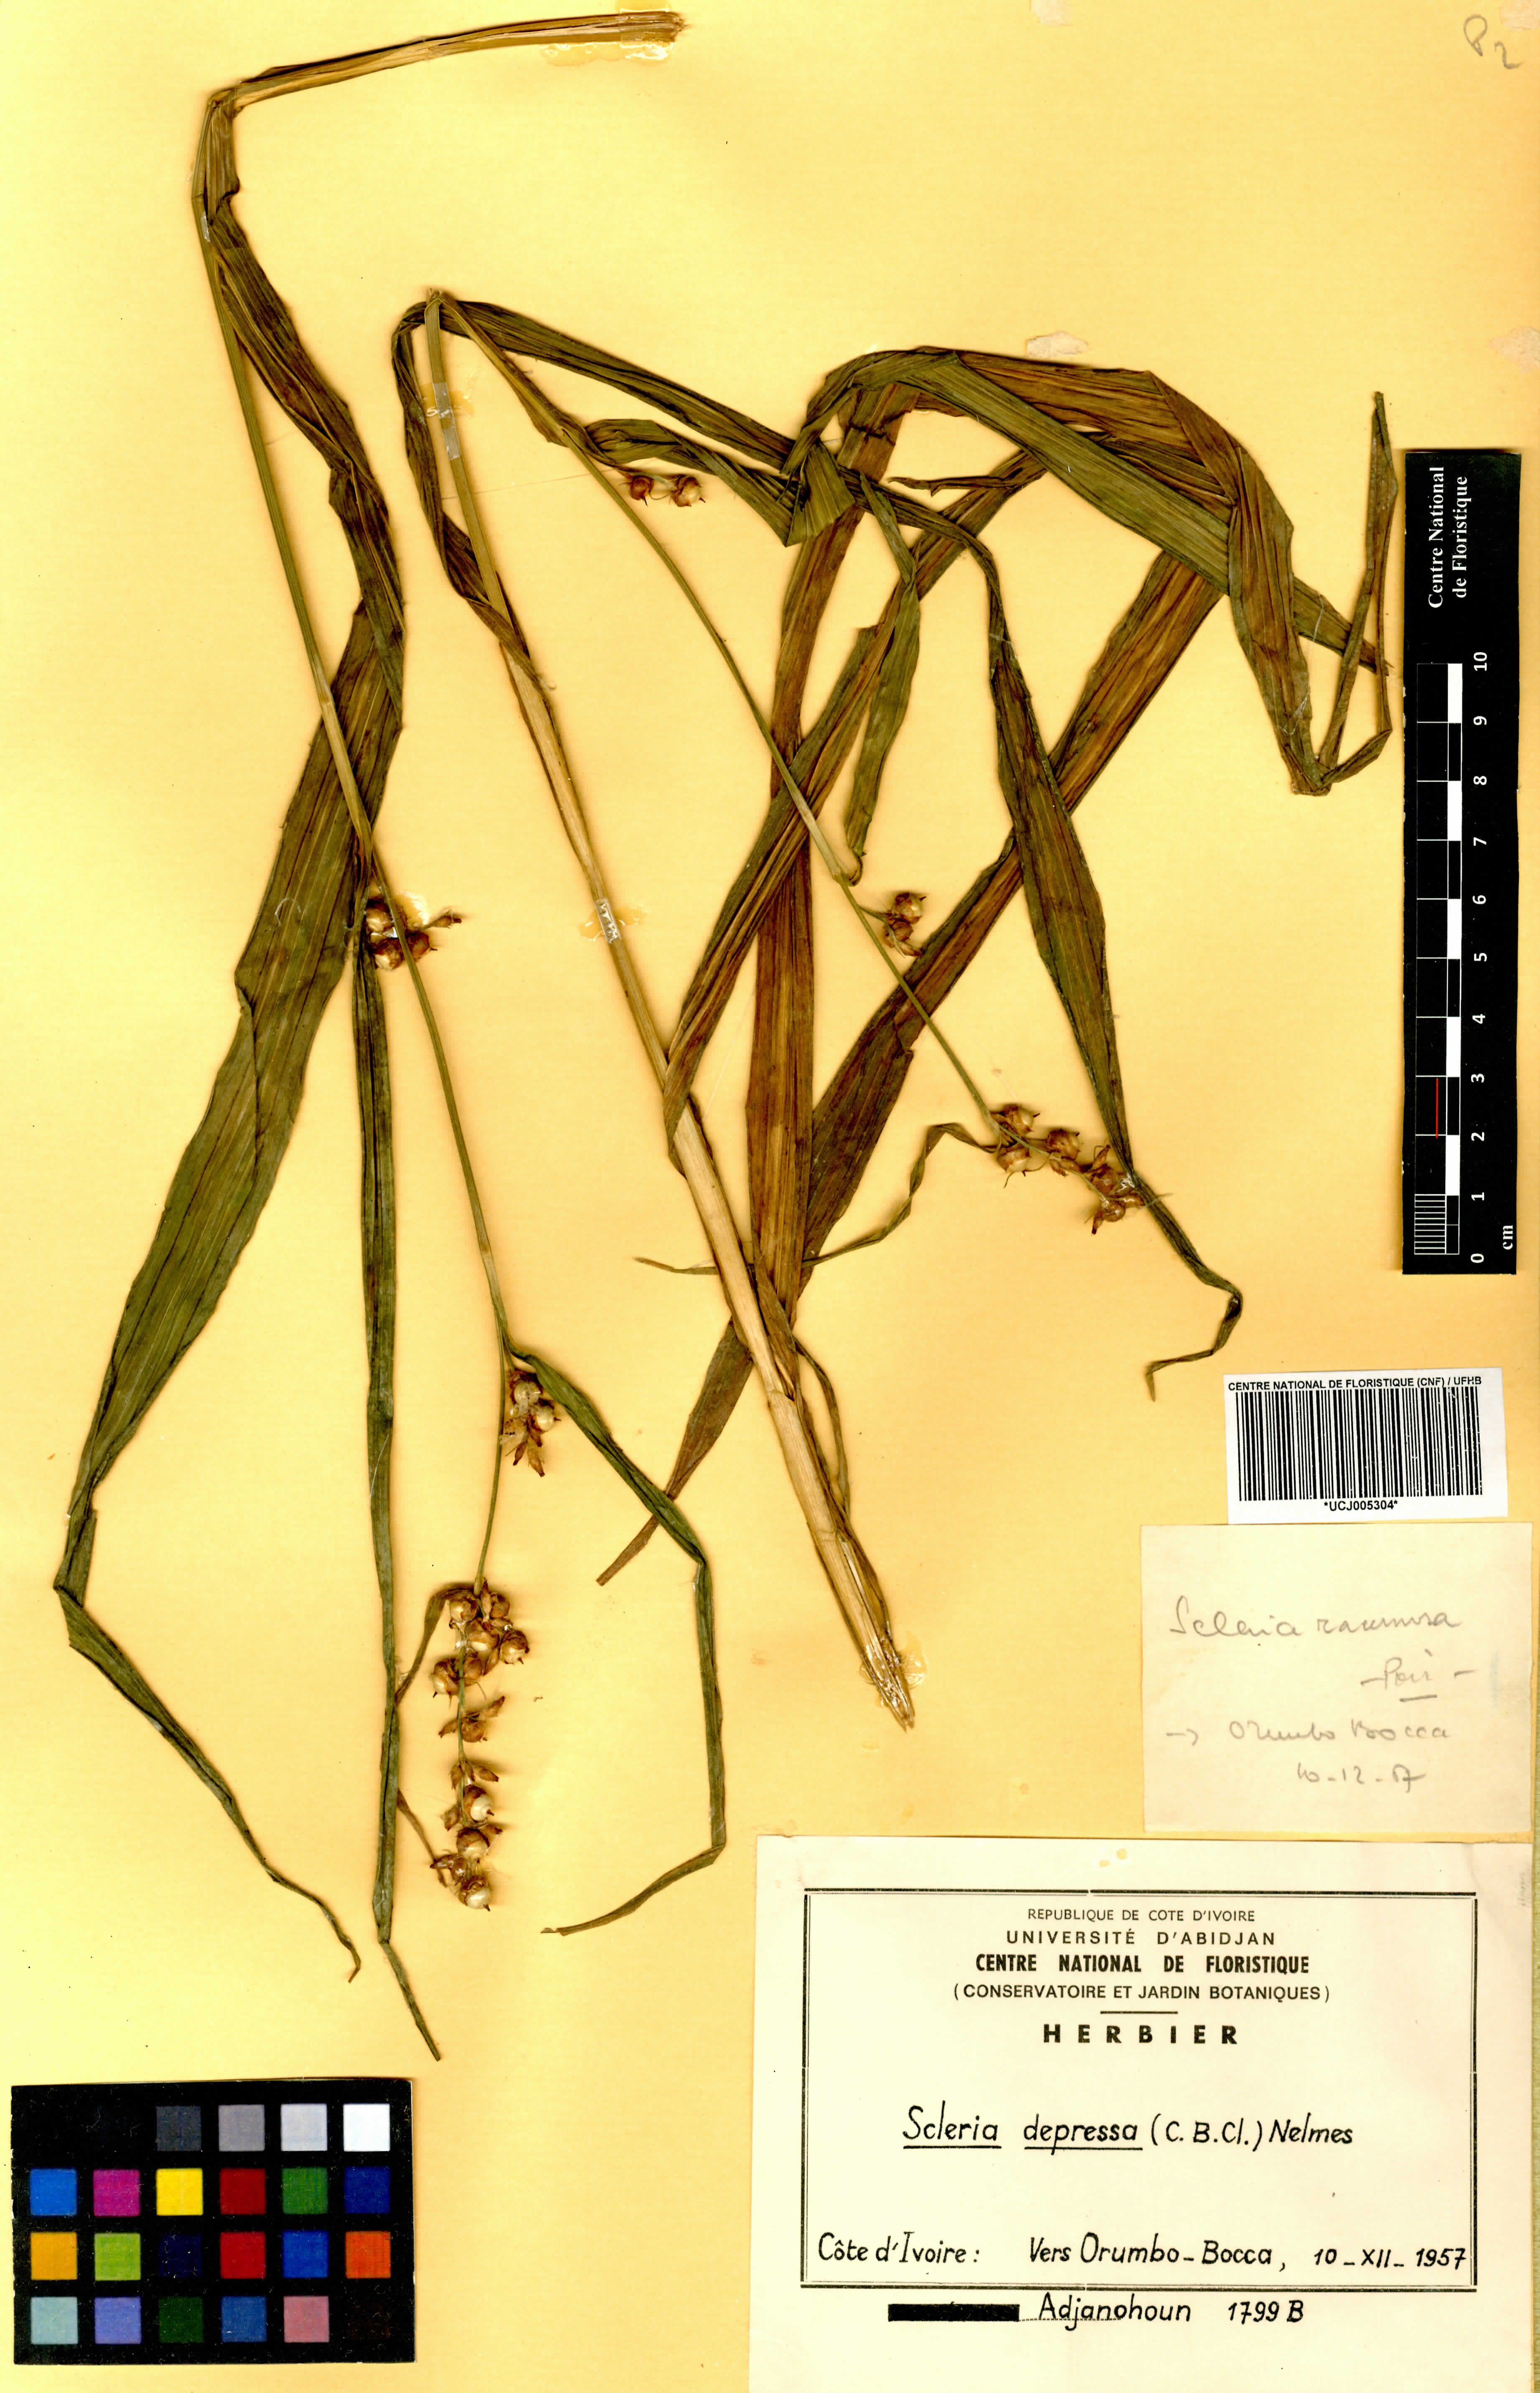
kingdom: Plantae
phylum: Tracheophyta
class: Liliopsida
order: Poales
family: Cyperaceae
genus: Scleria
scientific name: Scleria depressa
